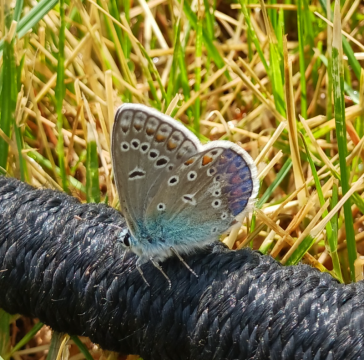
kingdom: Animalia
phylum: Arthropoda
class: Insecta
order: Lepidoptera
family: Lycaenidae
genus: Polyommatus
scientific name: Polyommatus icarus
